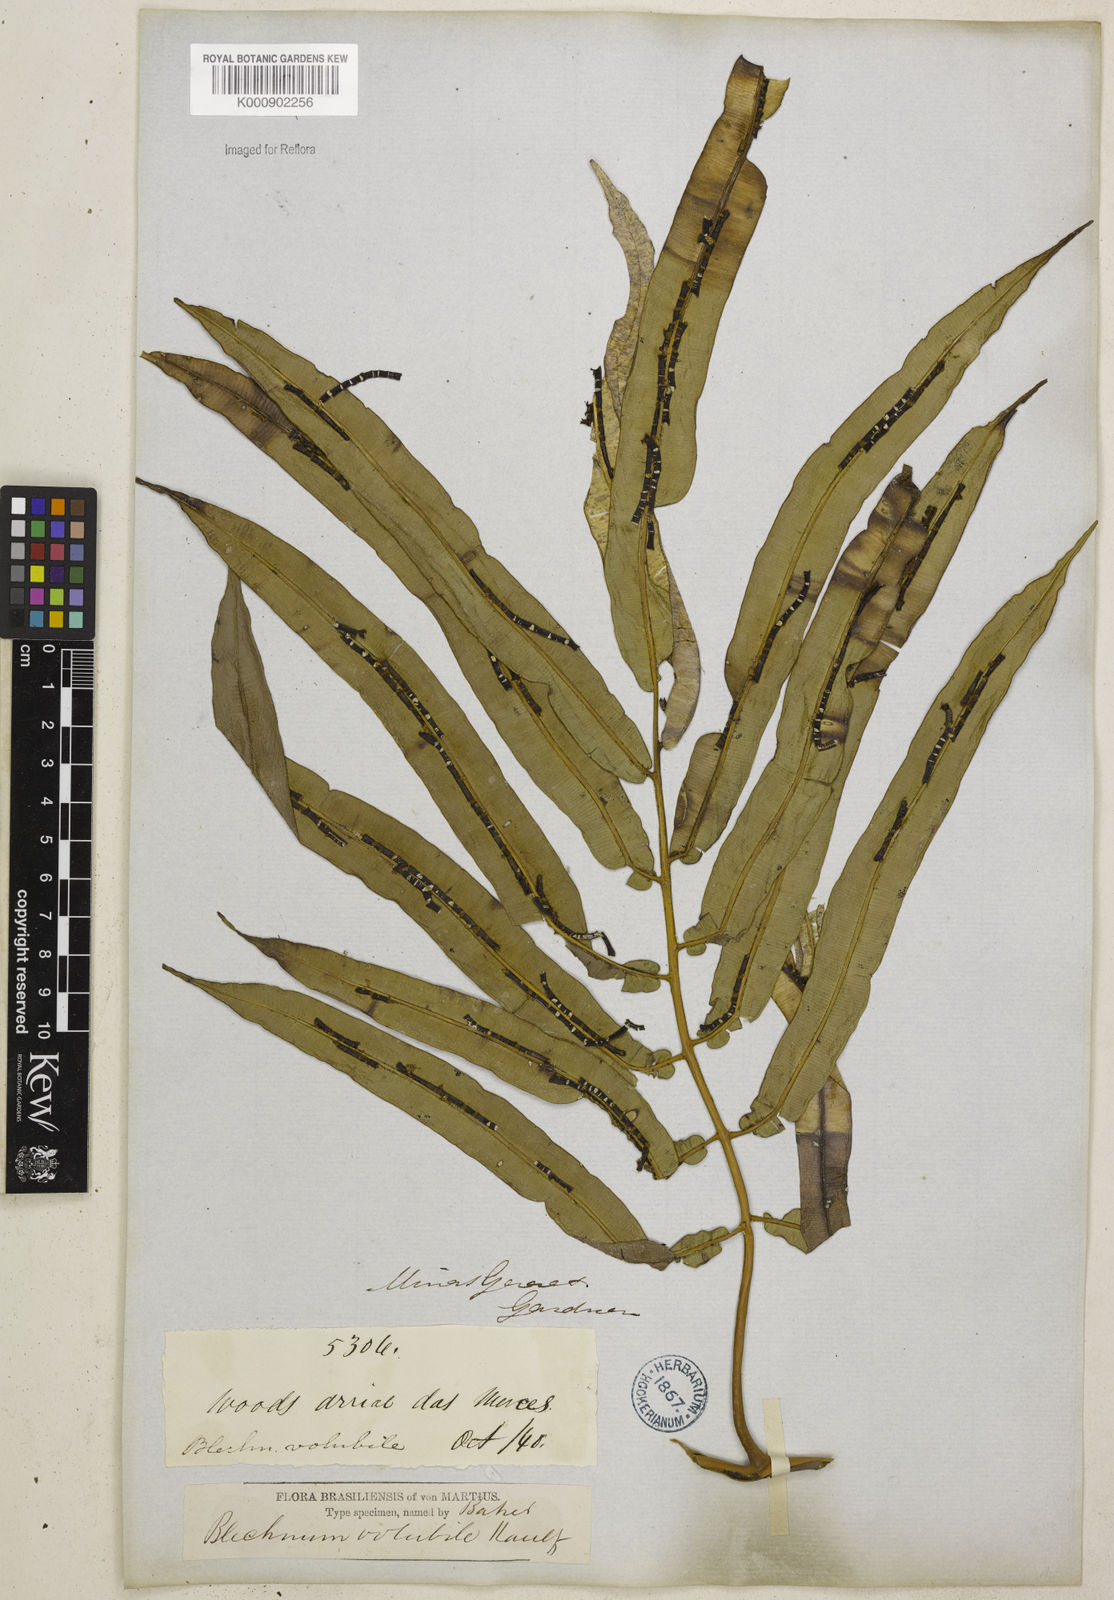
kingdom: Plantae
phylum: Tracheophyta
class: Polypodiopsida
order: Polypodiales
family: Blechnaceae
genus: Salpichlaena
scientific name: Salpichlaena volubilis
